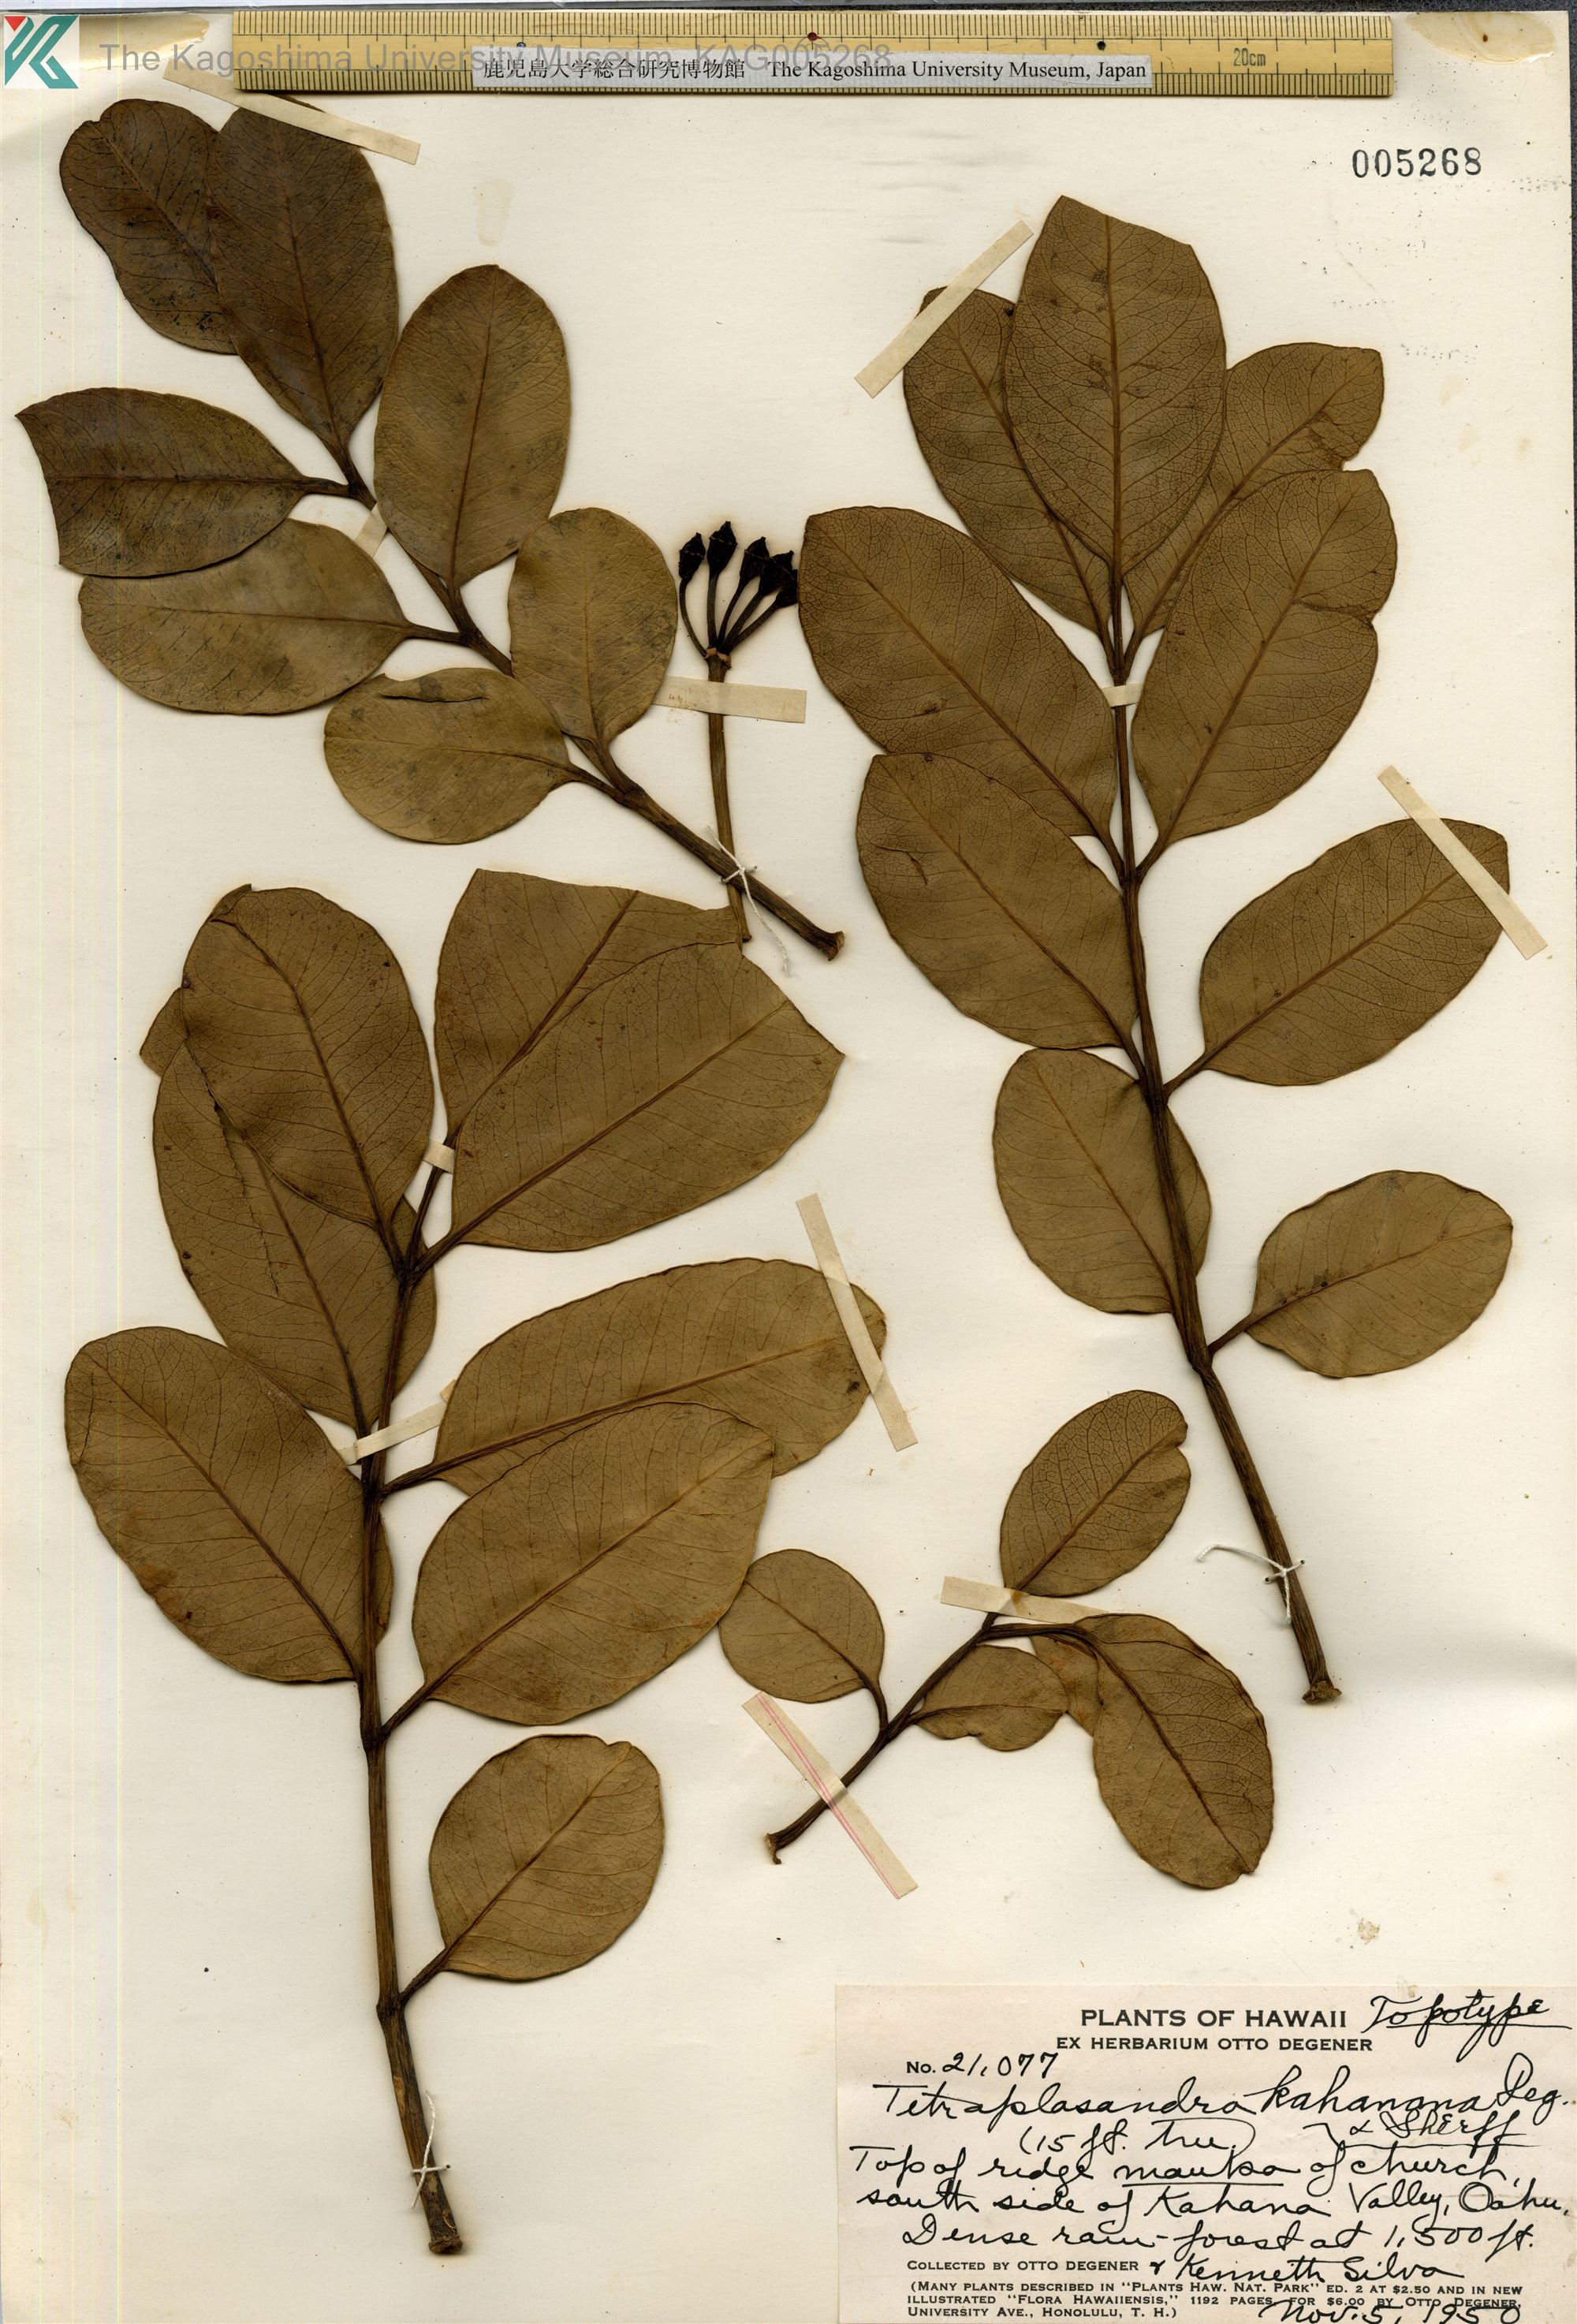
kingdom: Plantae
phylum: Tracheophyta
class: Magnoliopsida
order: Apiales
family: Araliaceae
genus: Polyscias
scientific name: Polyscias oahuensis
